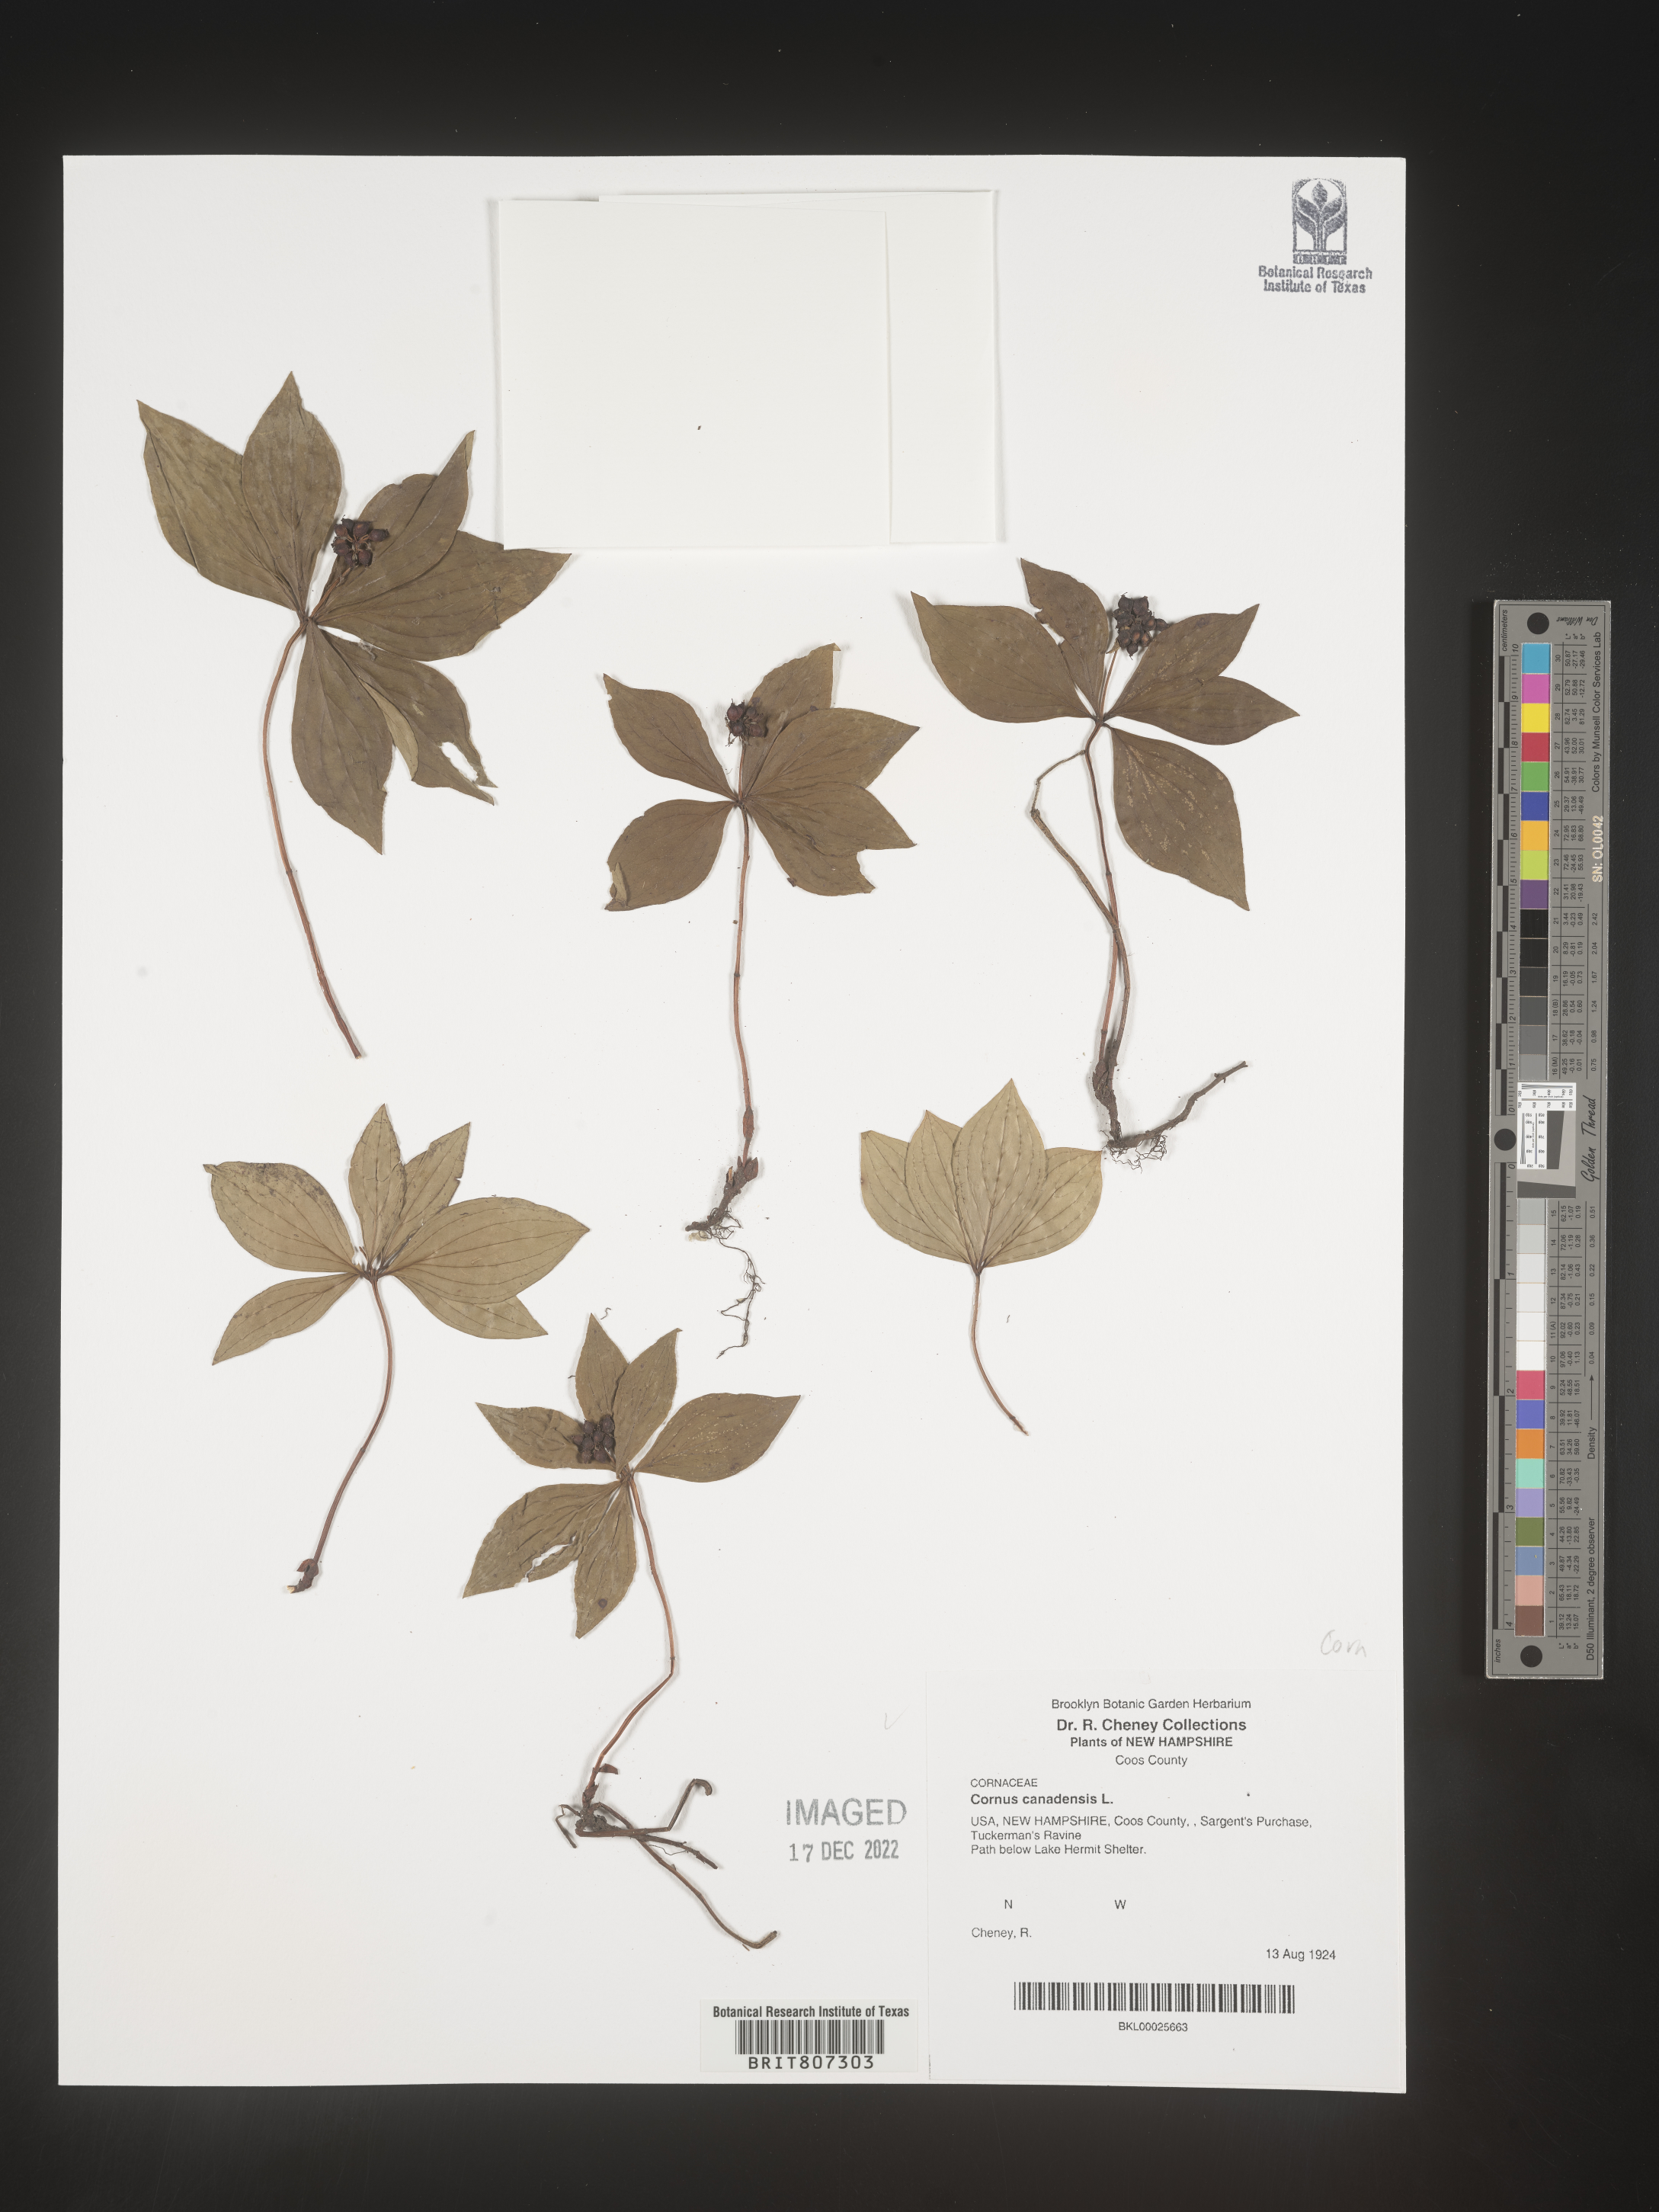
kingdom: Plantae
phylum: Tracheophyta
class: Magnoliopsida
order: Cornales
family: Cornaceae
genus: Cornus
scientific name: Cornus canadensis
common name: Creeping dogwood
